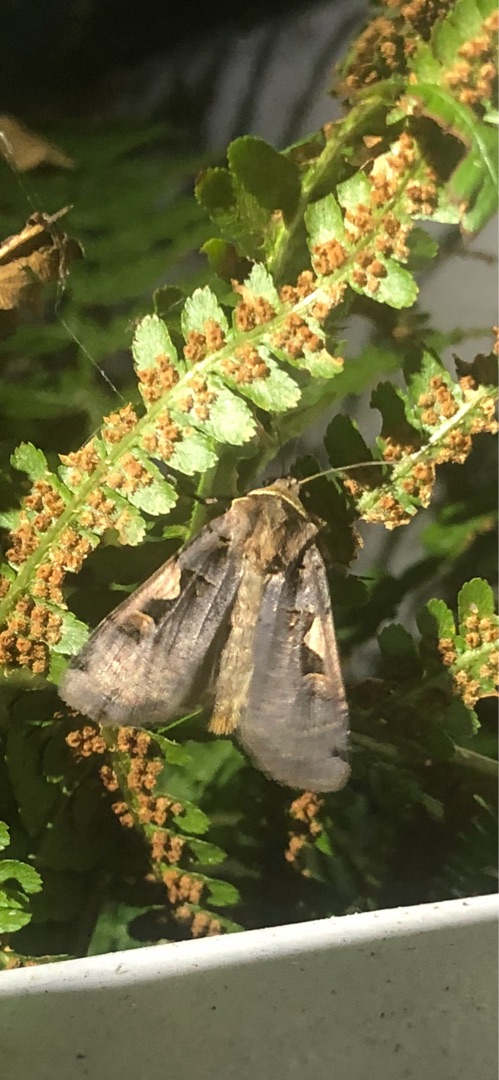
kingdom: Animalia
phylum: Arthropoda
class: Insecta
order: Lepidoptera
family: Noctuidae
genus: Xestia
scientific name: Xestia c-nigrum
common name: Det sorte c
